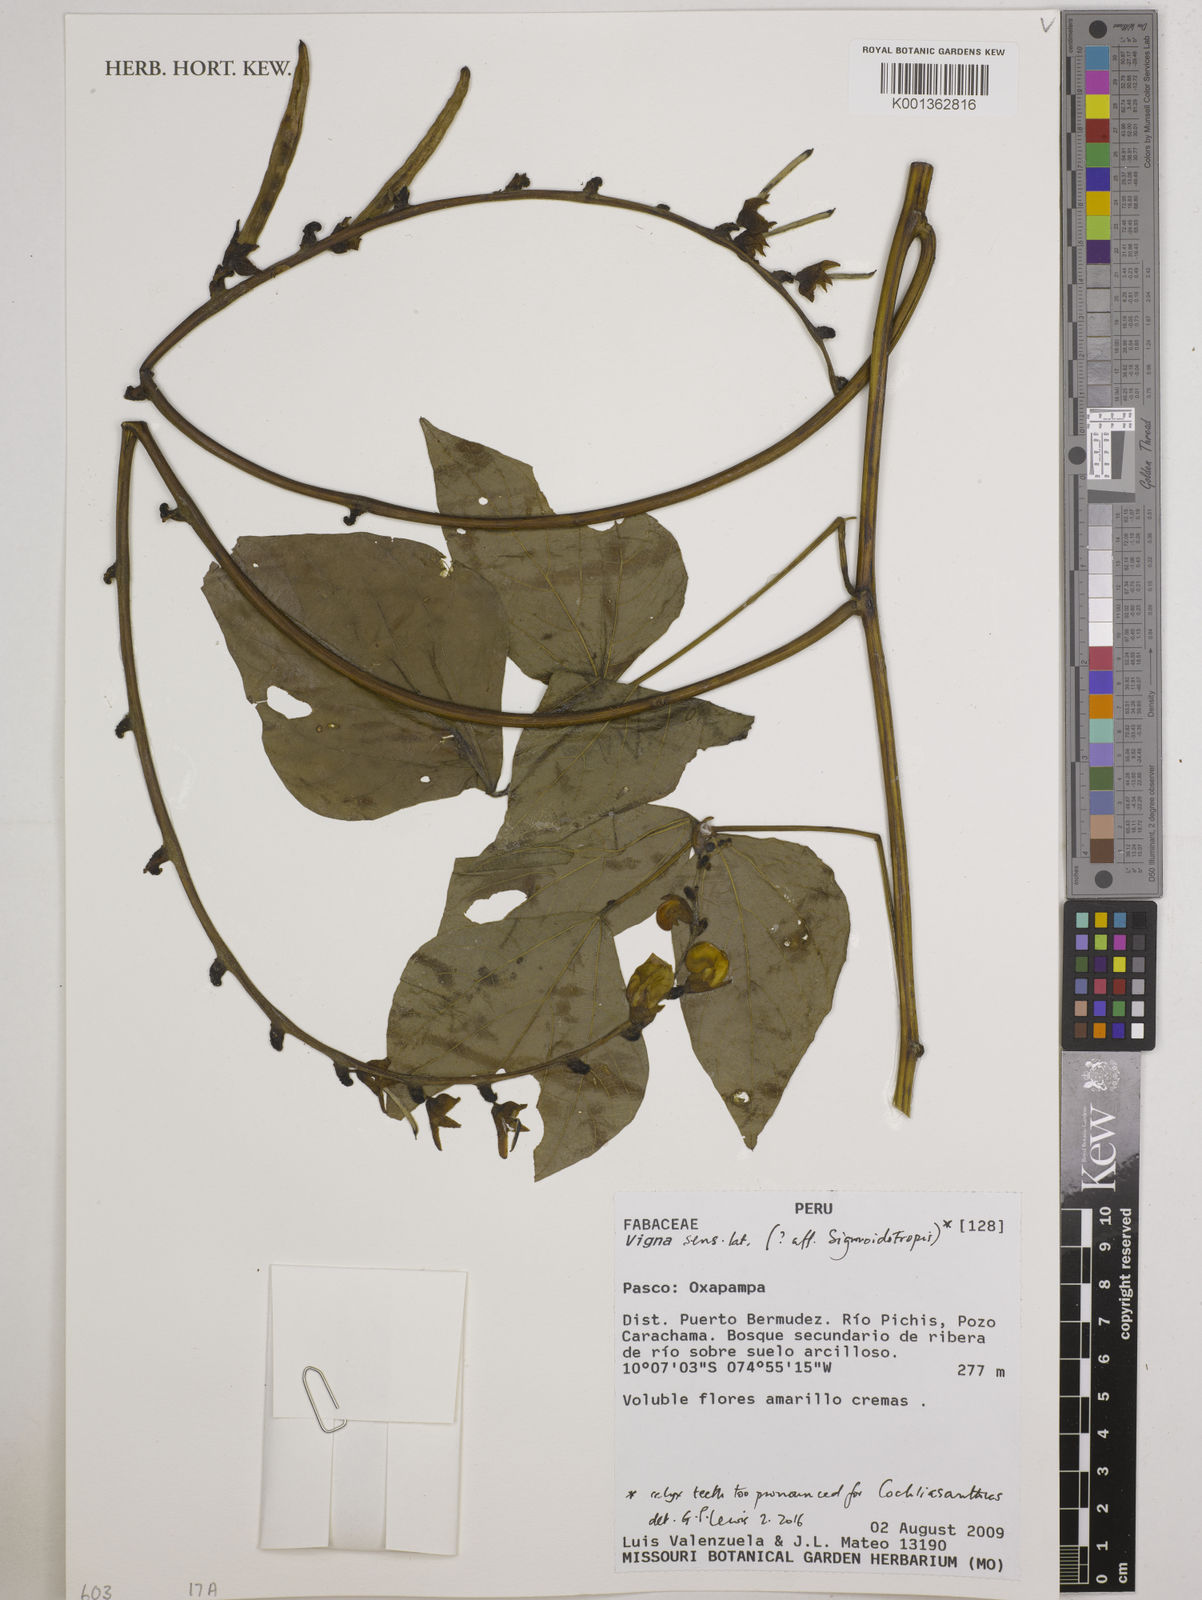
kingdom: Plantae
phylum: Tracheophyta
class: Magnoliopsida
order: Fabales
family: Fabaceae
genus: Vigna
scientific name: Vigna
